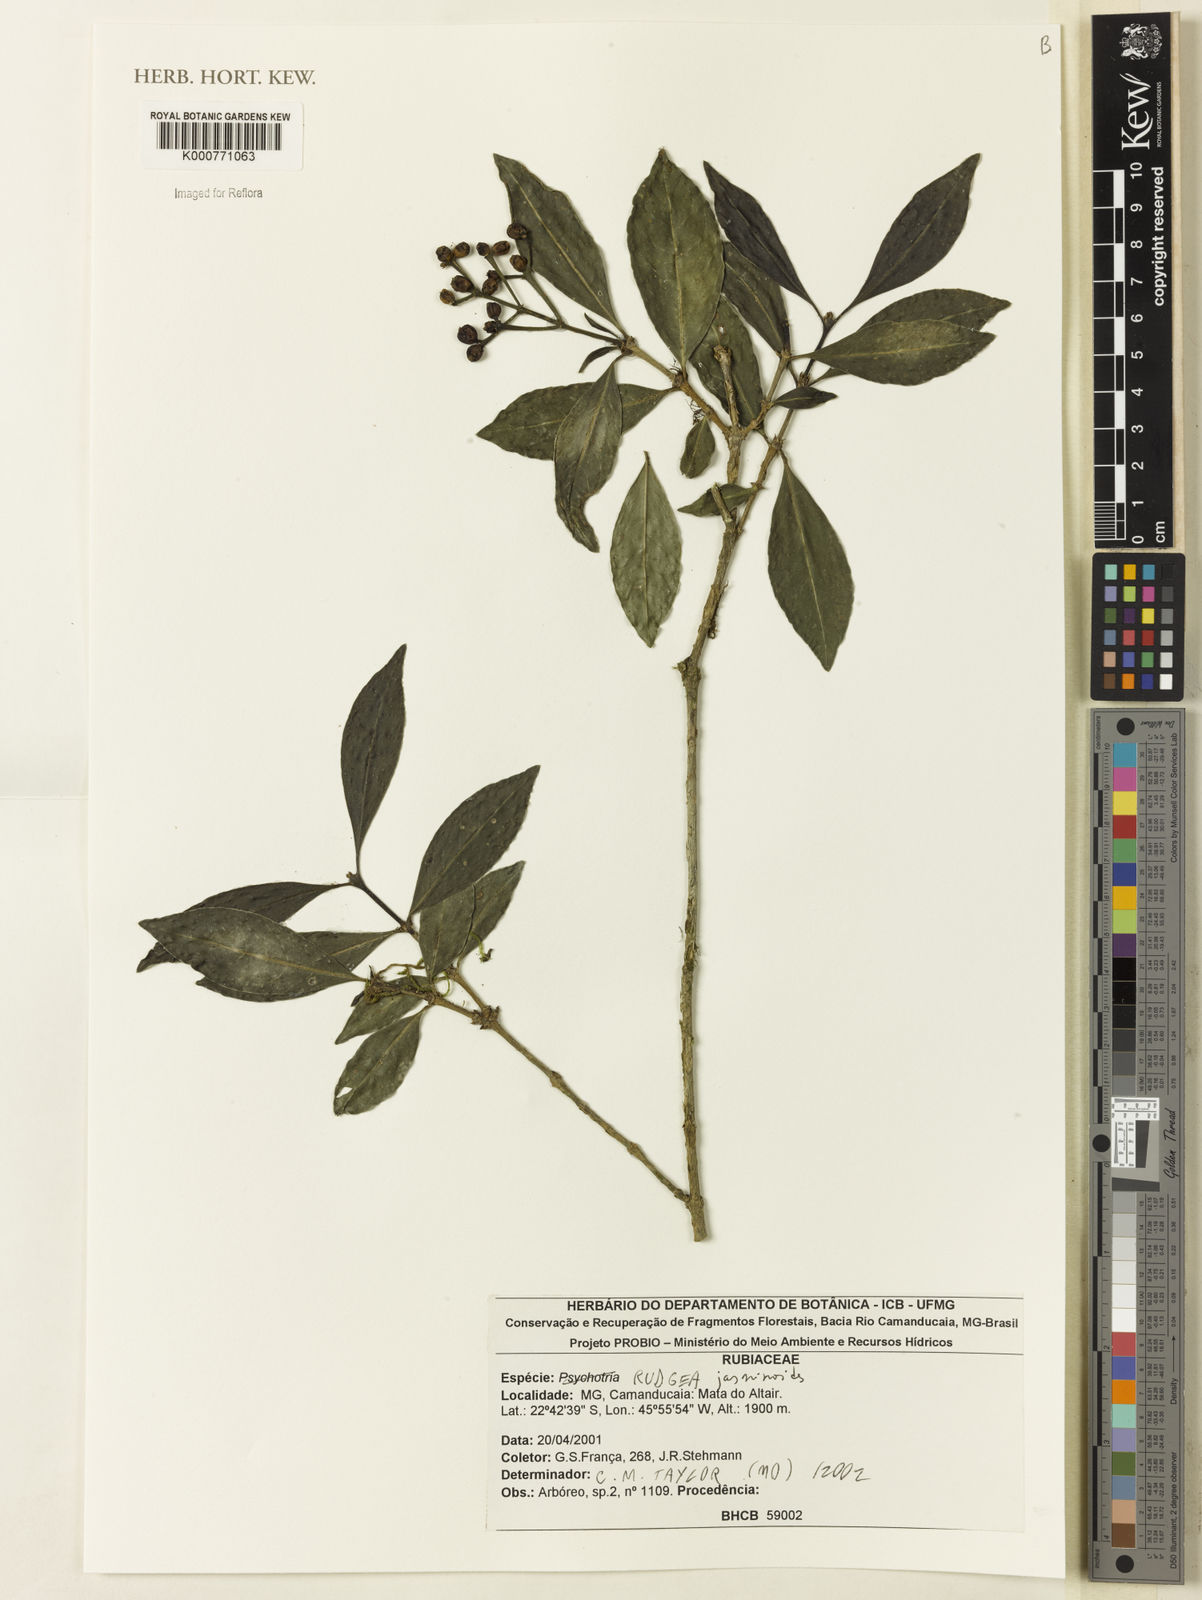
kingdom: Plantae
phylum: Tracheophyta
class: Magnoliopsida
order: Gentianales
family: Rubiaceae
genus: Rudgea
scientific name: Rudgea
